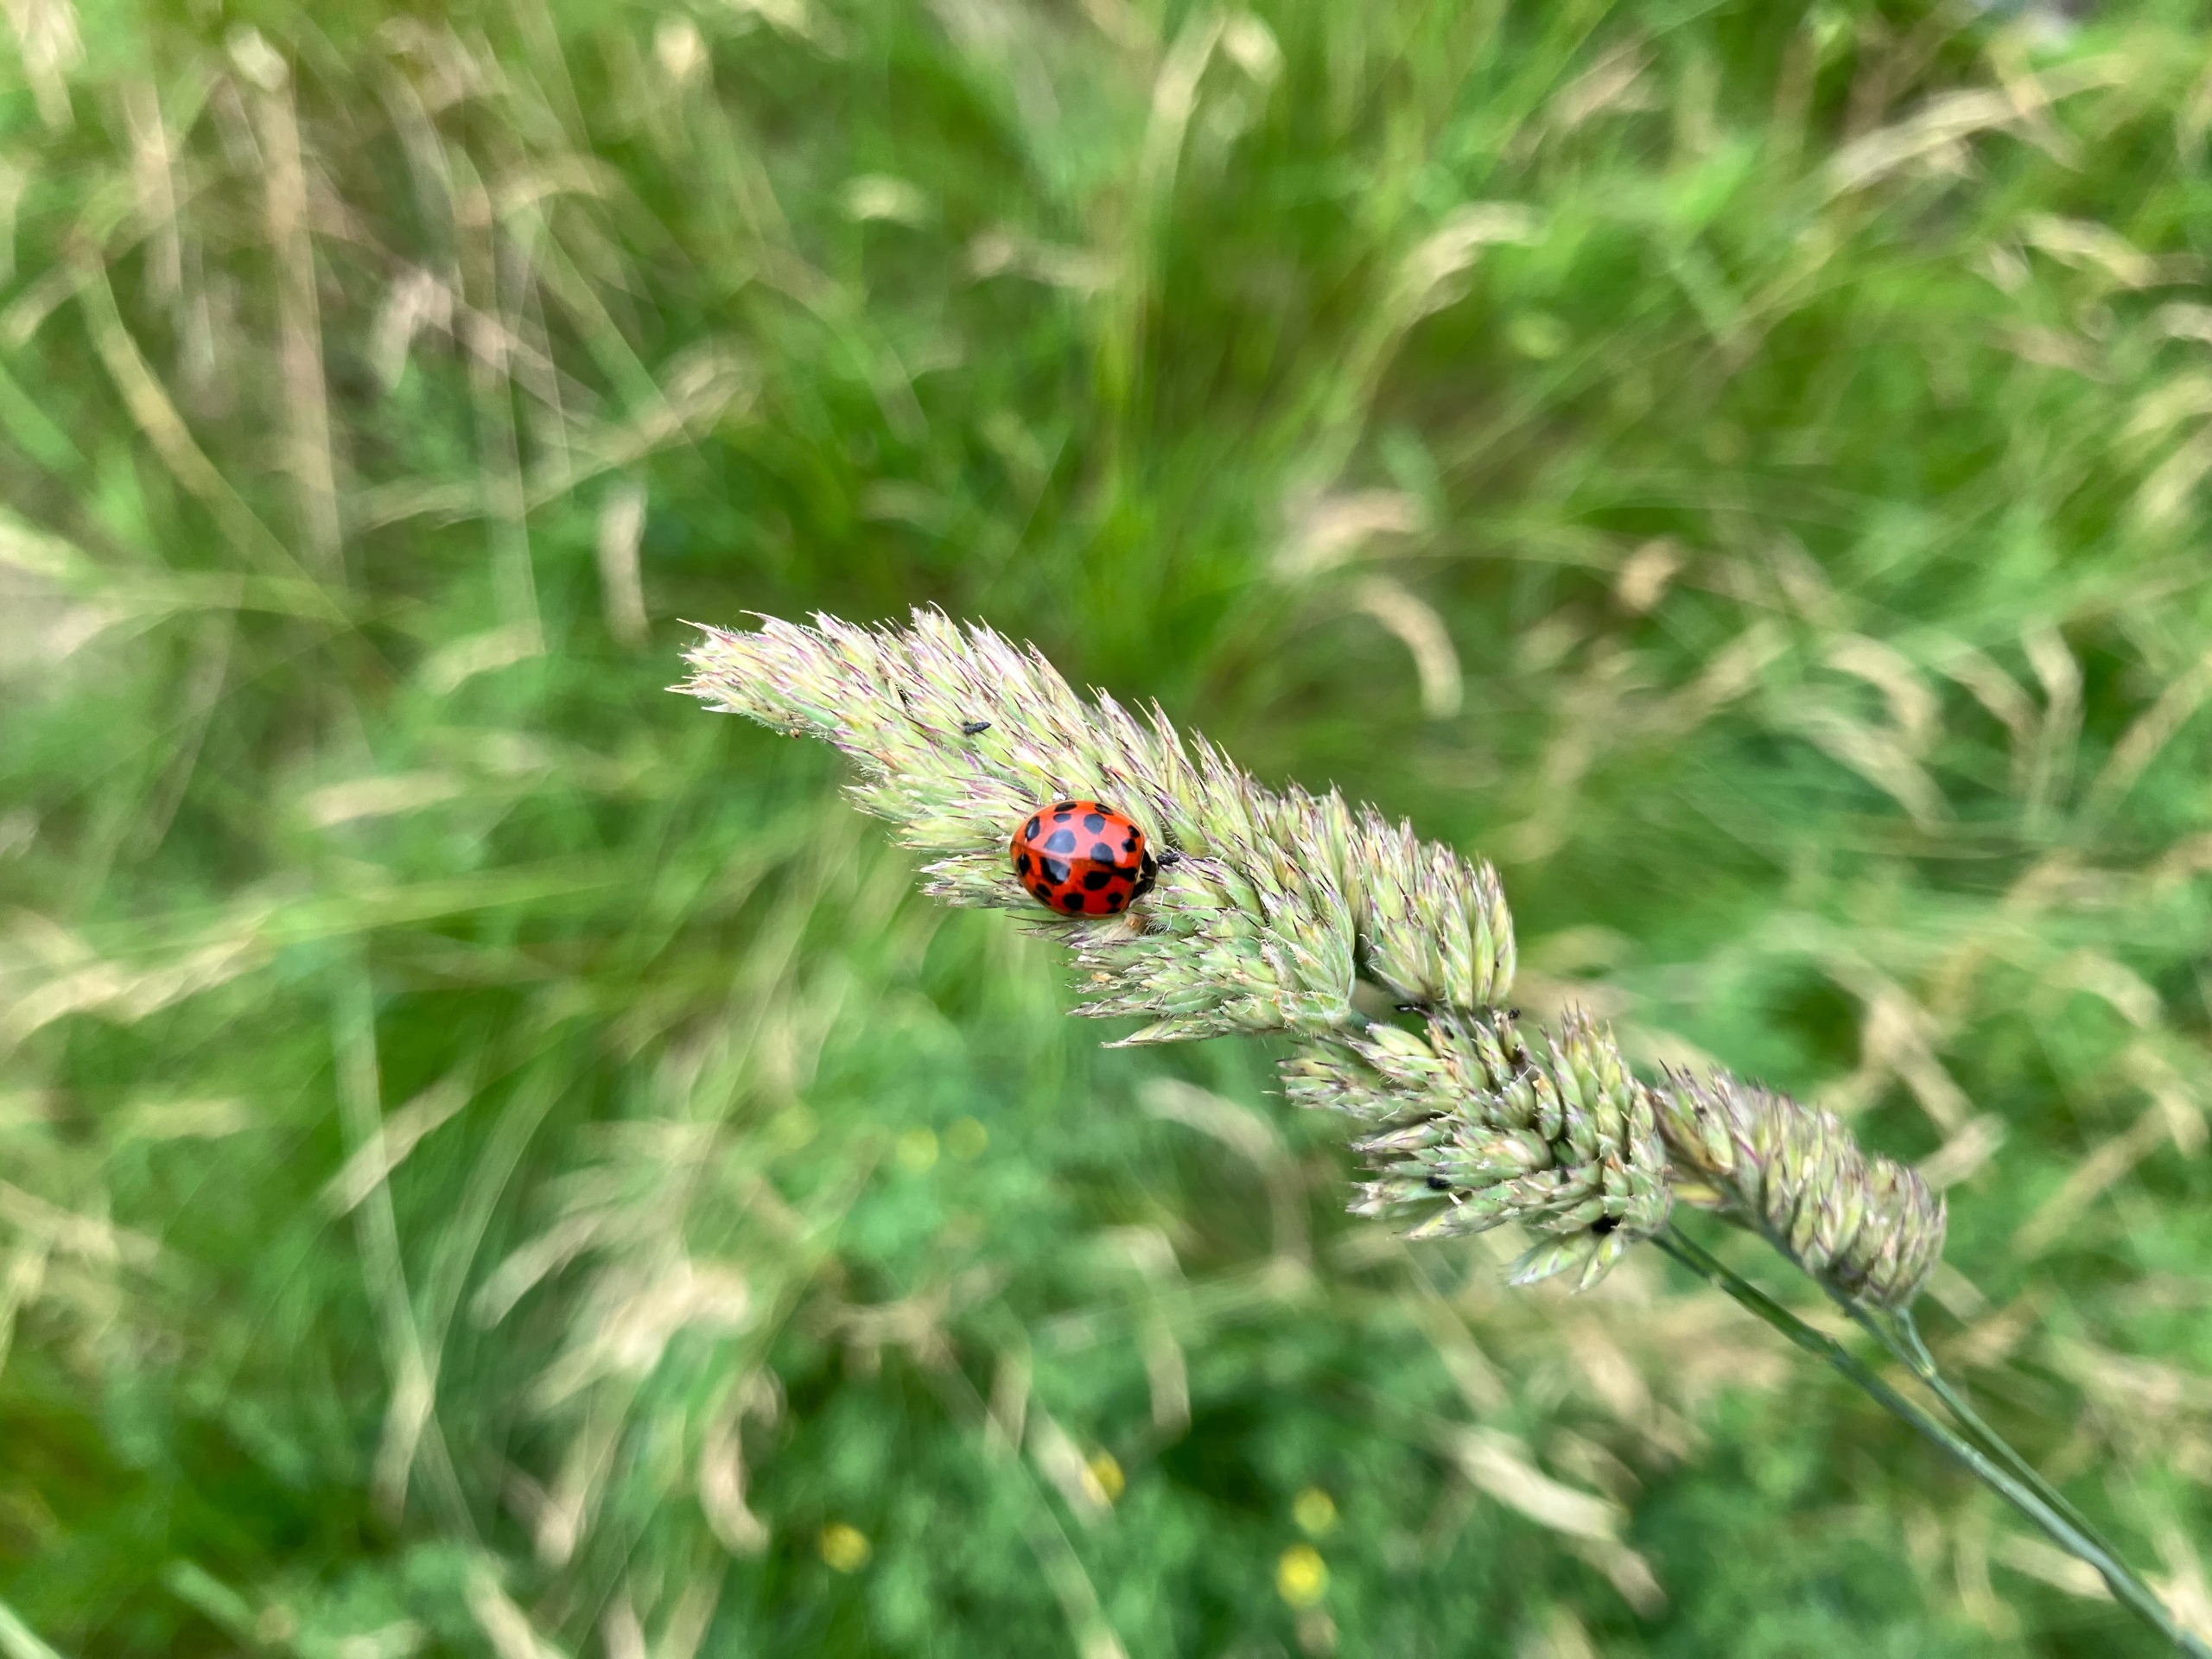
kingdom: Animalia
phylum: Arthropoda
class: Insecta
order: Coleoptera
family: Coccinellidae
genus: Harmonia
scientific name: Harmonia axyridis
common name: Harlekinmariehøne
